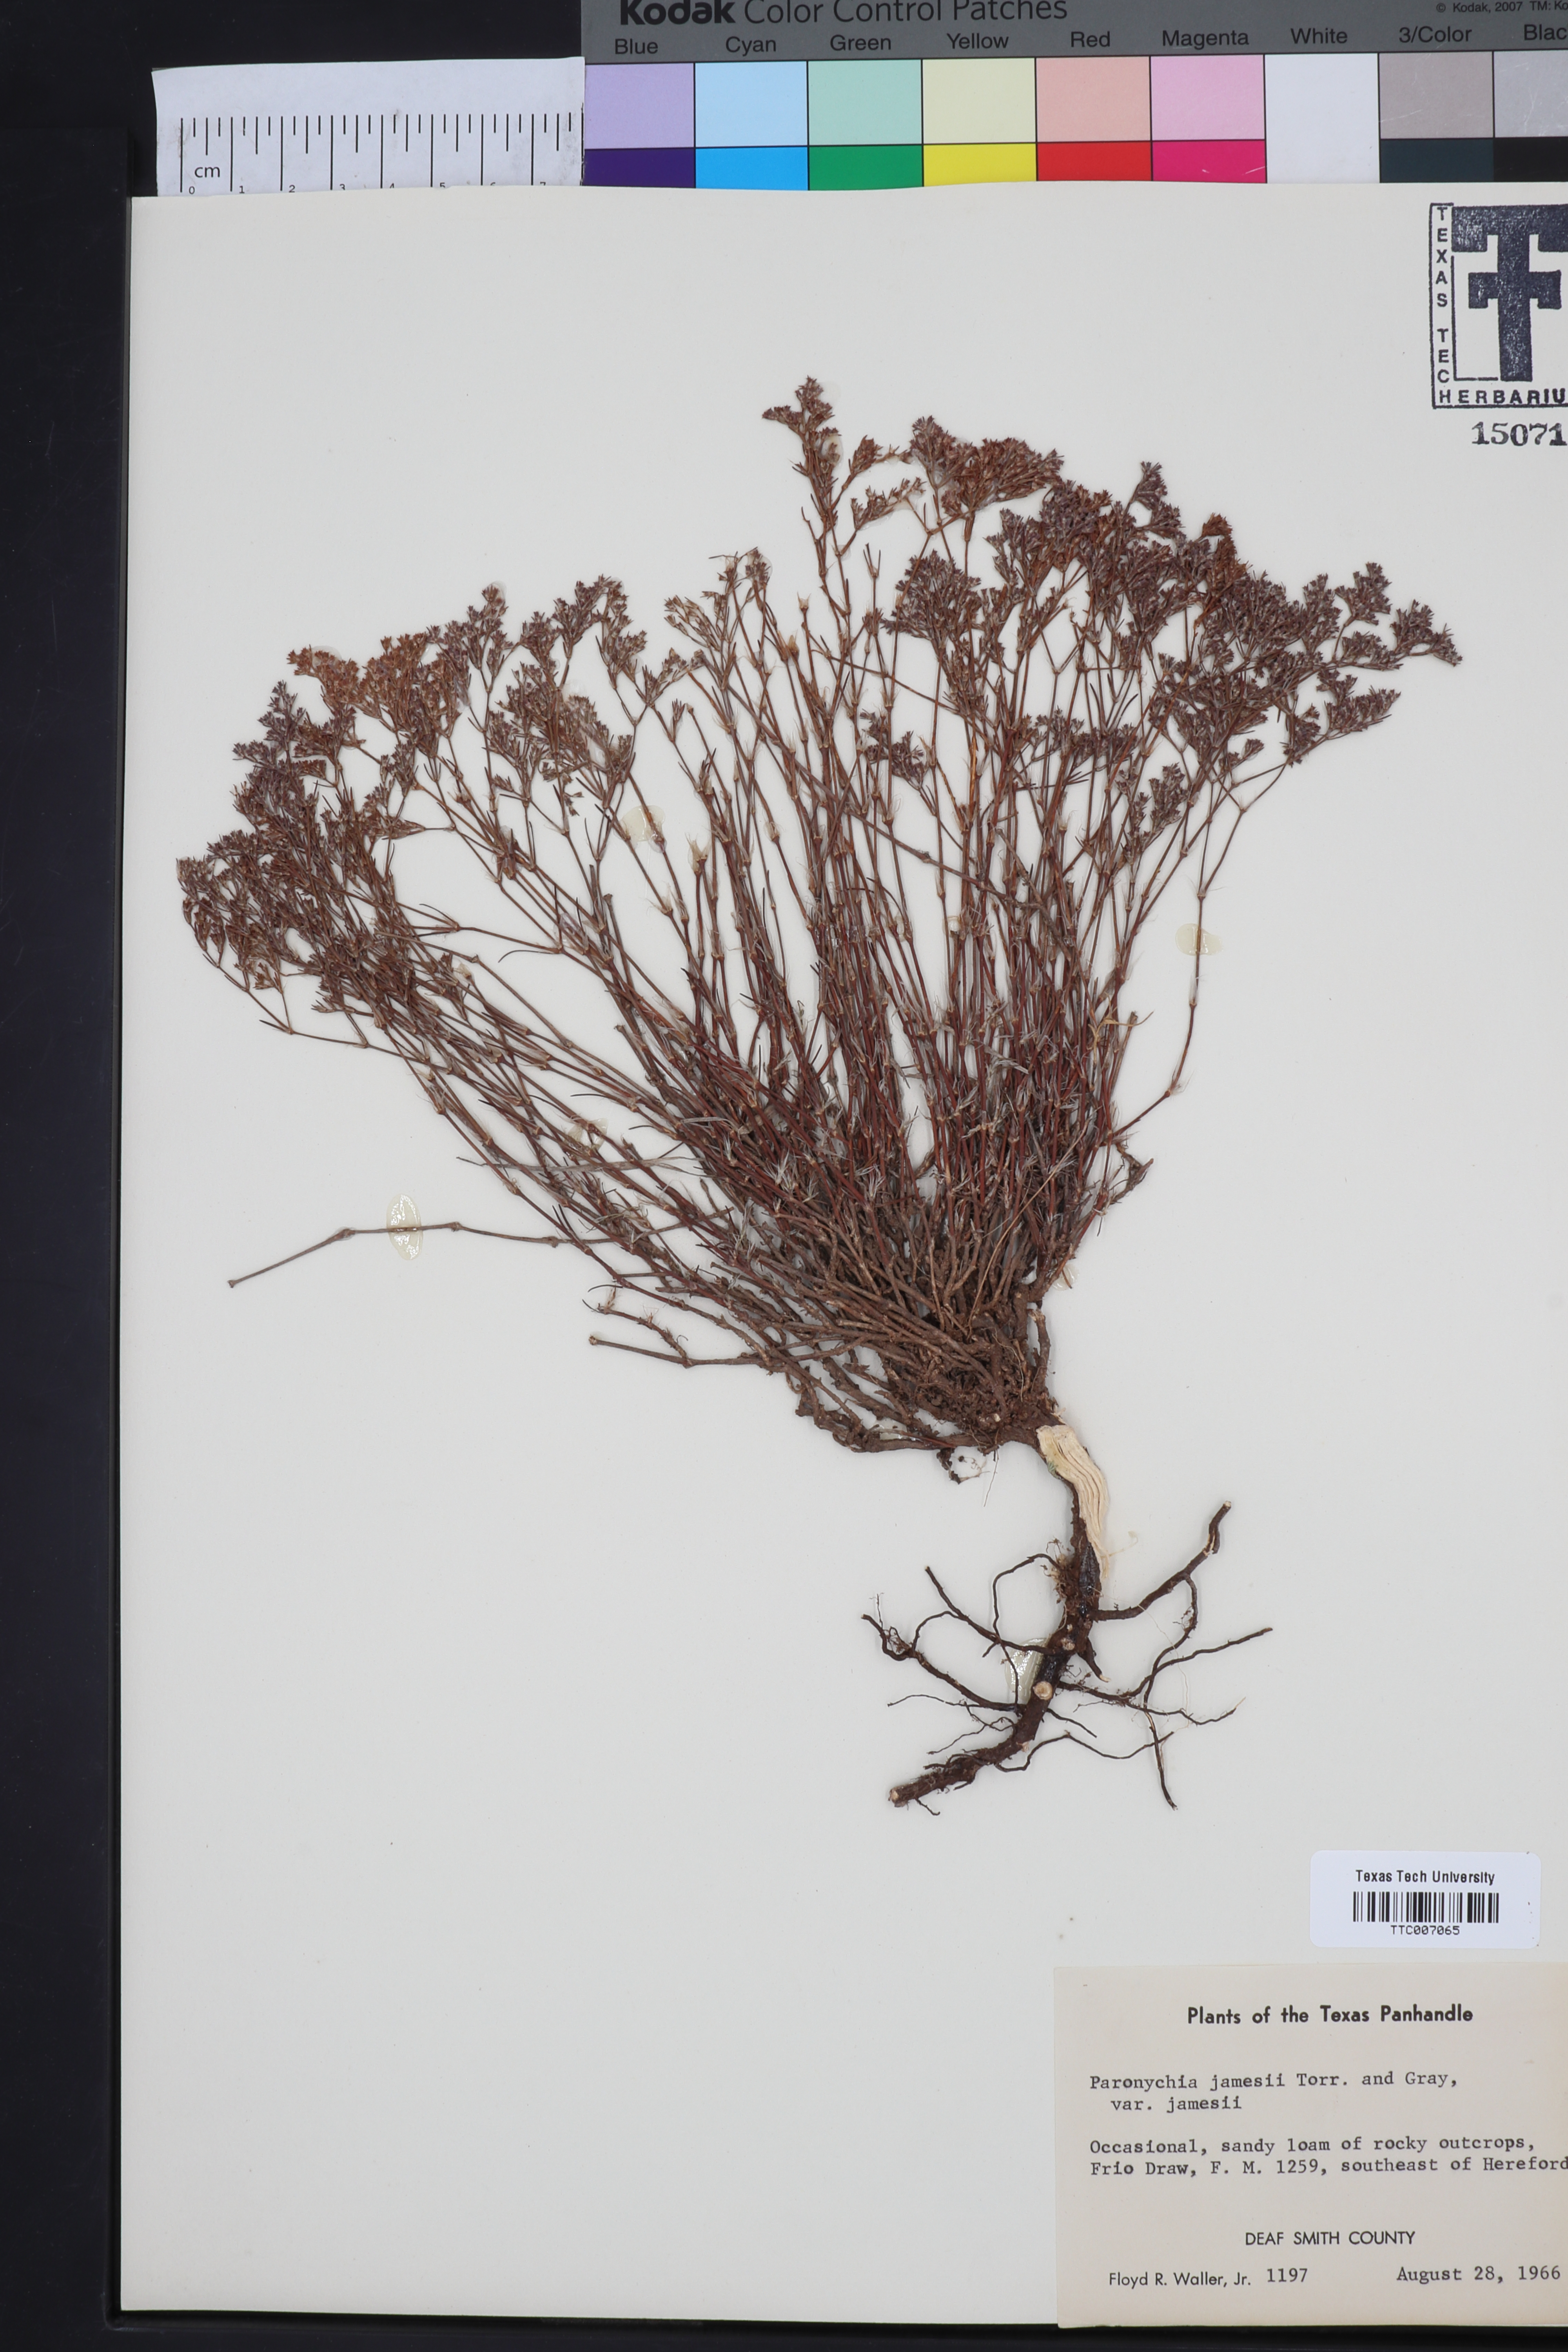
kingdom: Plantae
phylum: Tracheophyta
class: Magnoliopsida
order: Caryophyllales
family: Caryophyllaceae
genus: Paronychia
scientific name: Paronychia jamesii
